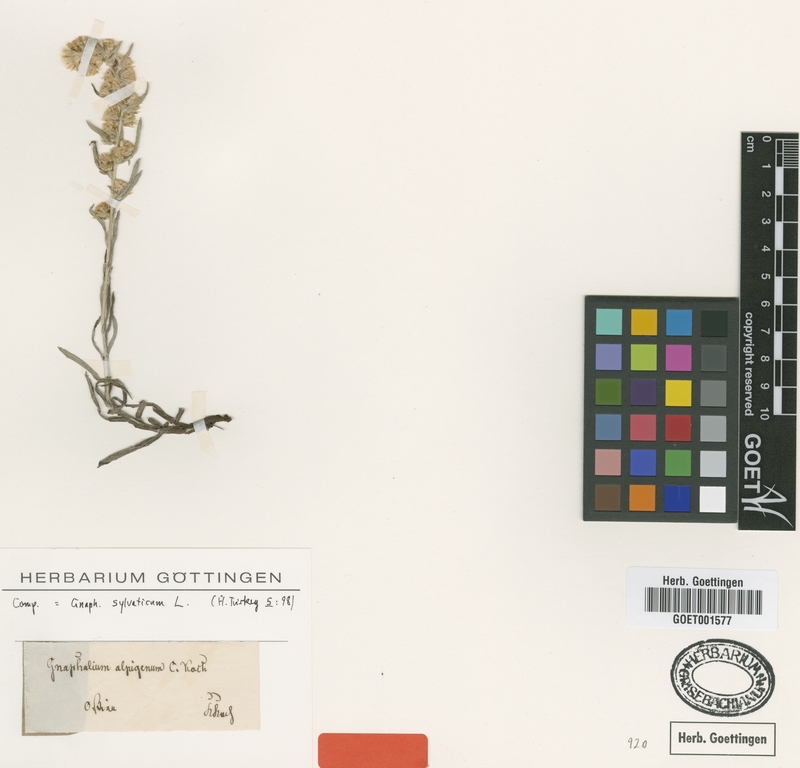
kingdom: Plantae
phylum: Tracheophyta
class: Magnoliopsida
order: Asterales
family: Asteraceae
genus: Omalotheca
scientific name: Omalotheca sylvatica
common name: Heath cudweed
